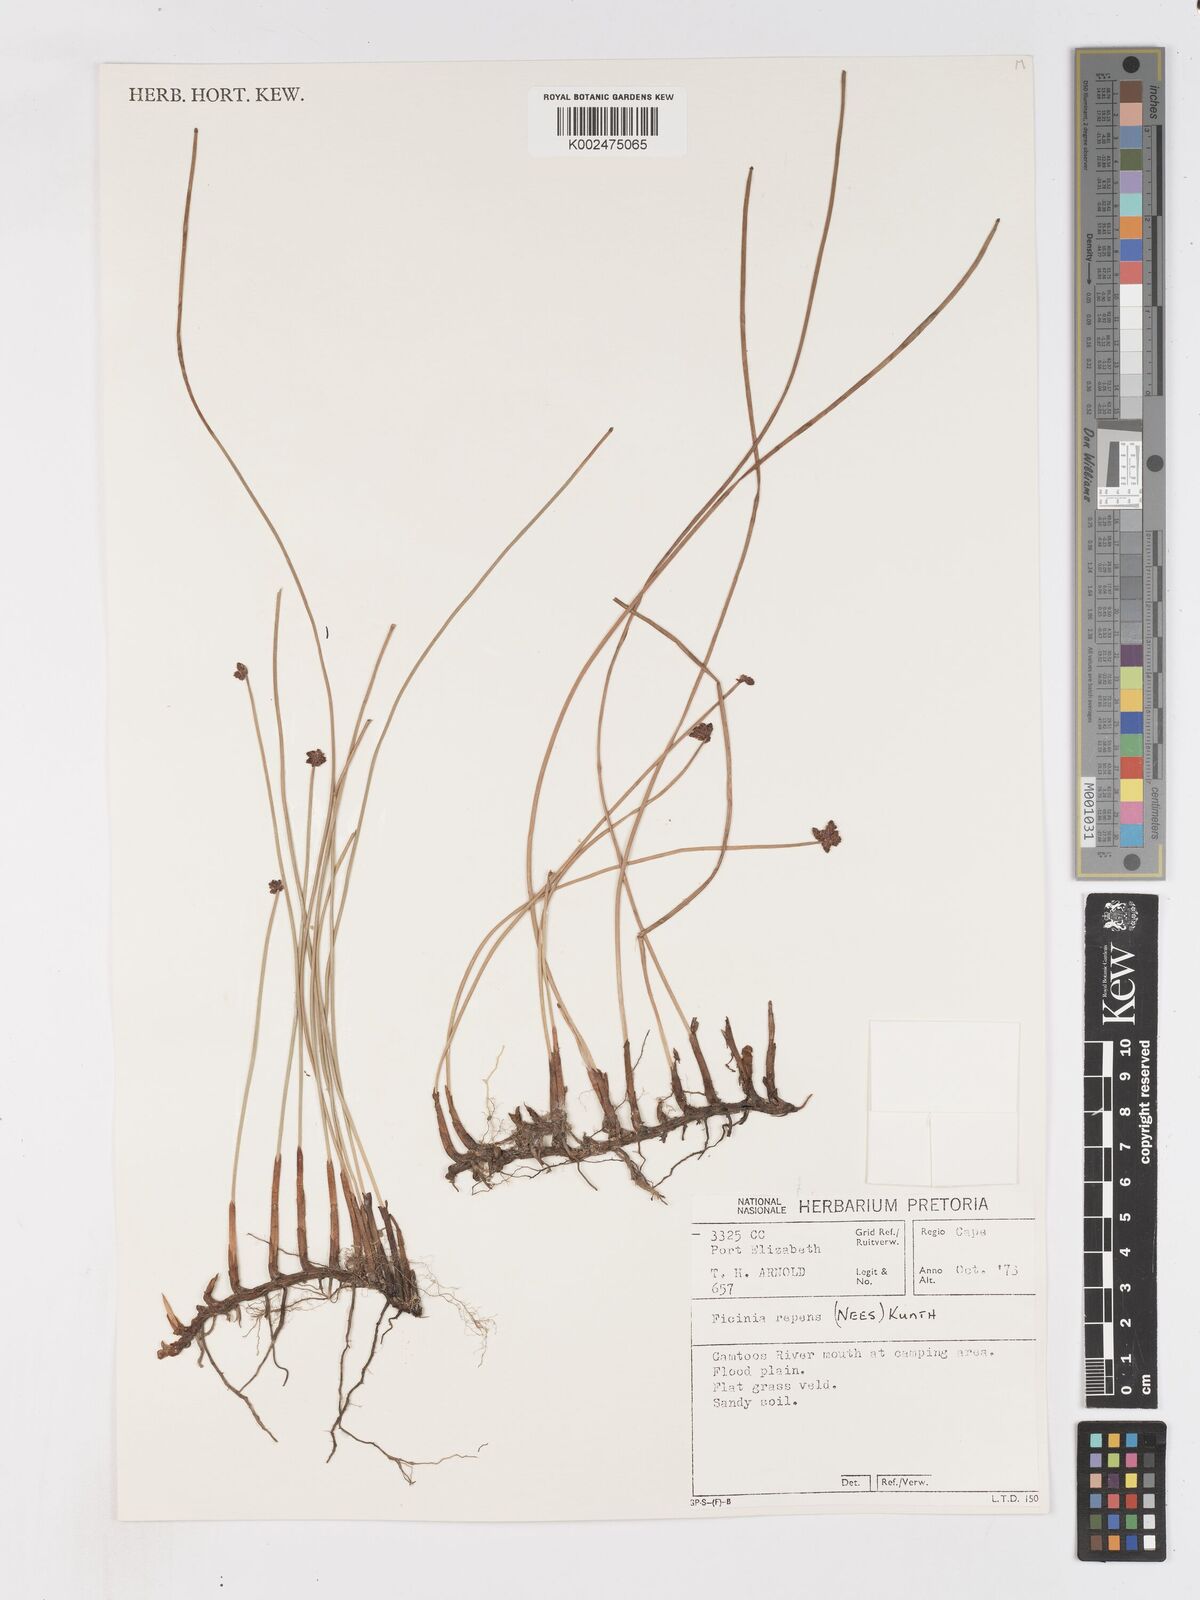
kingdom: Plantae
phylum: Tracheophyta
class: Liliopsida
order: Poales
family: Cyperaceae
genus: Ficinia
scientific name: Ficinia repens
